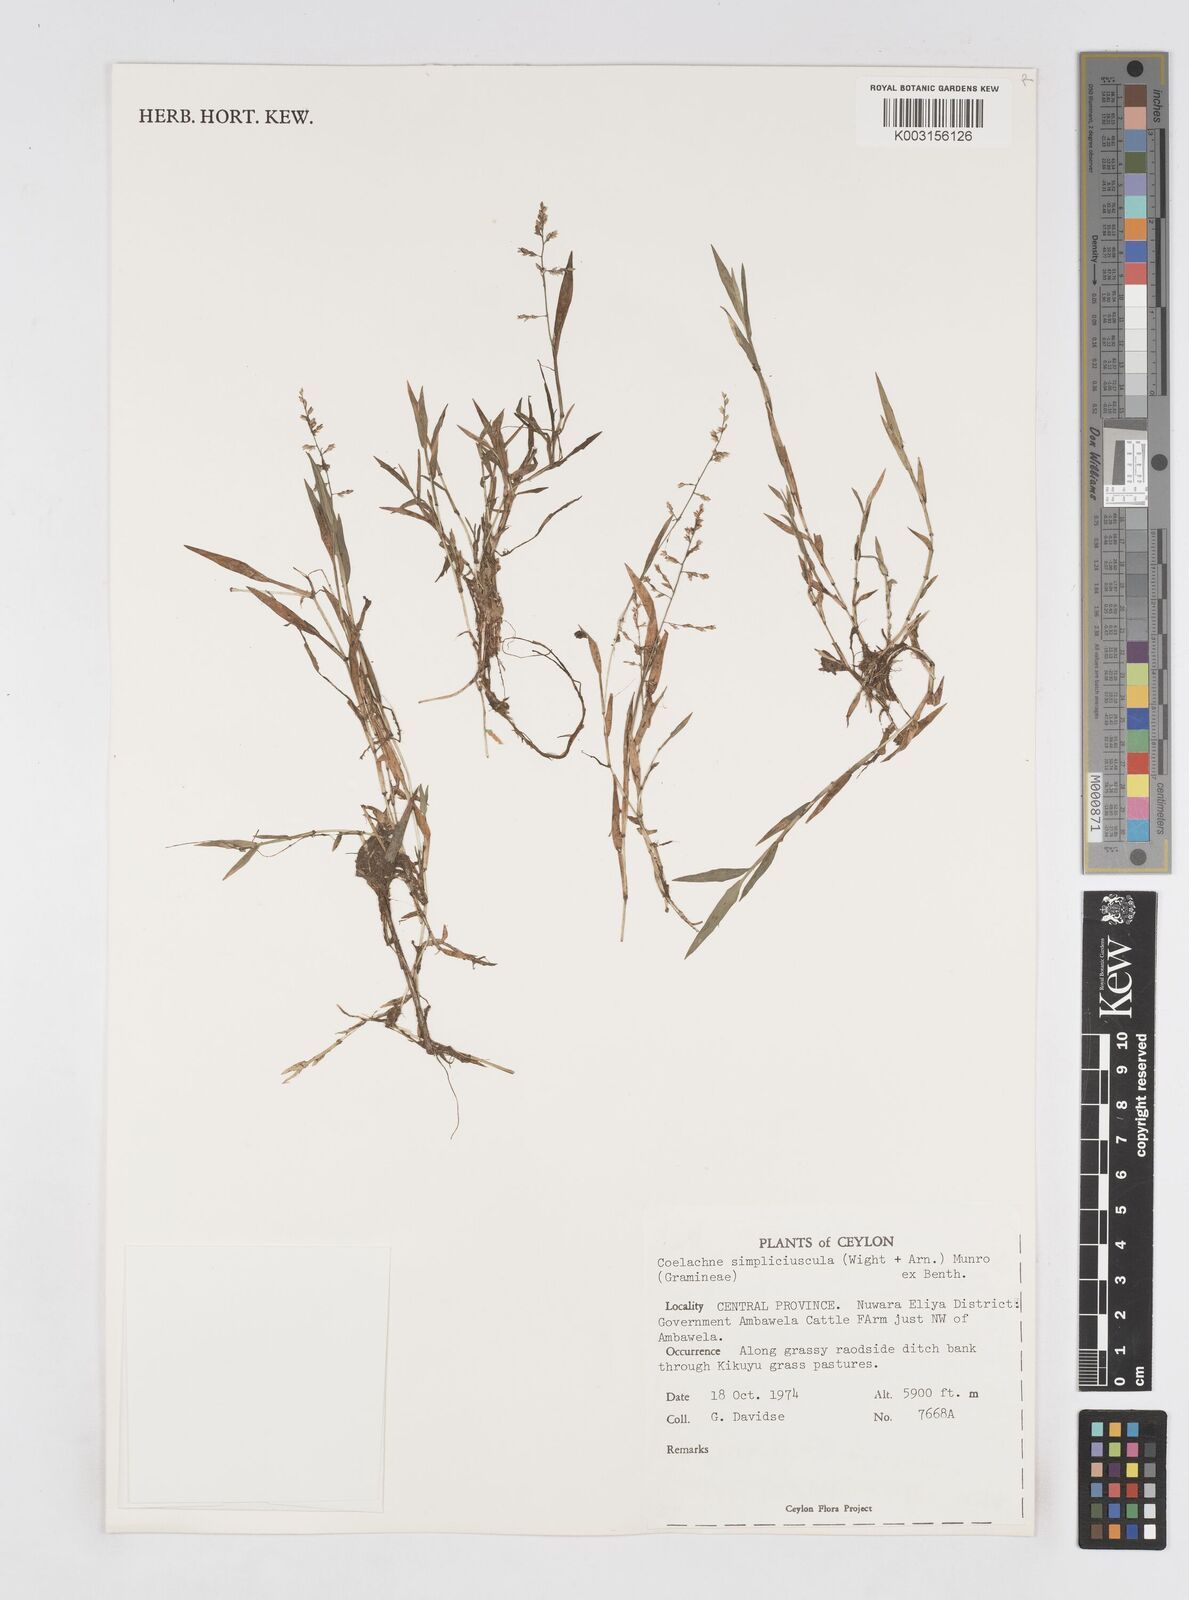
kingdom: Plantae
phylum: Tracheophyta
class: Liliopsida
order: Poales
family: Poaceae
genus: Coelachne
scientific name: Coelachne simpliciuscula
